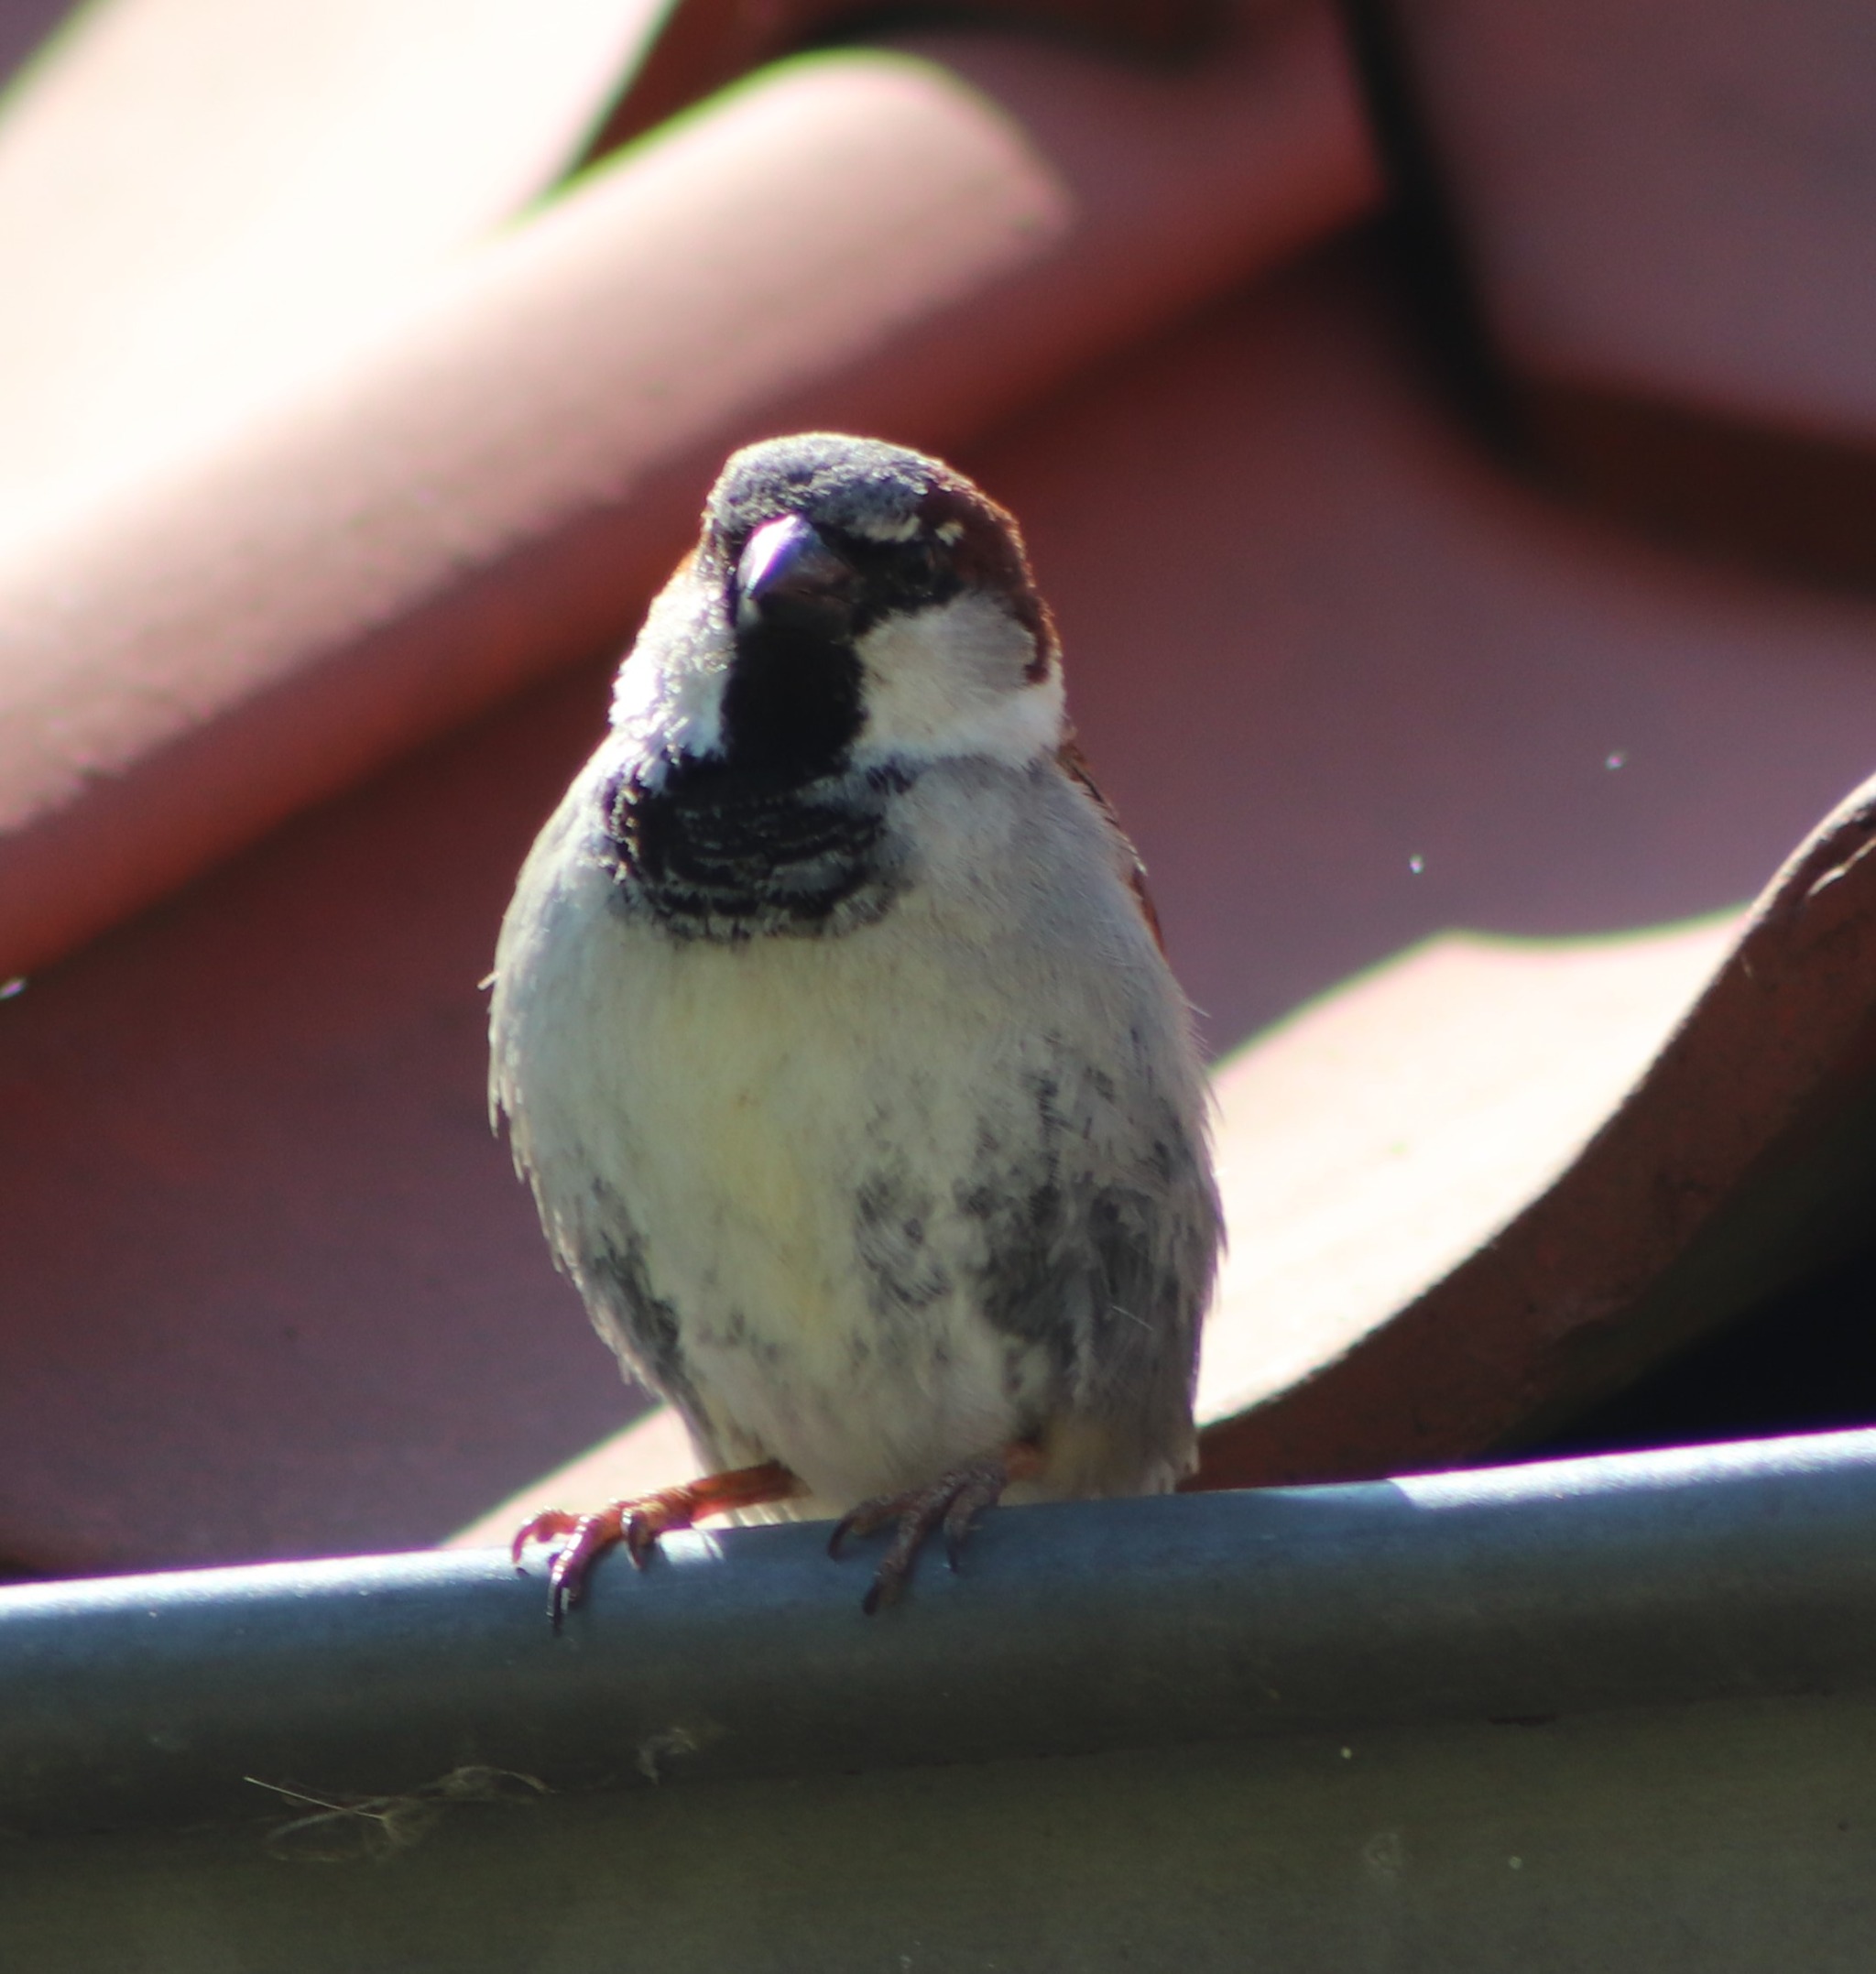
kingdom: Animalia
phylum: Chordata
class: Aves
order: Passeriformes
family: Passeridae
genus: Passer
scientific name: Passer domesticus
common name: Gråspurv
